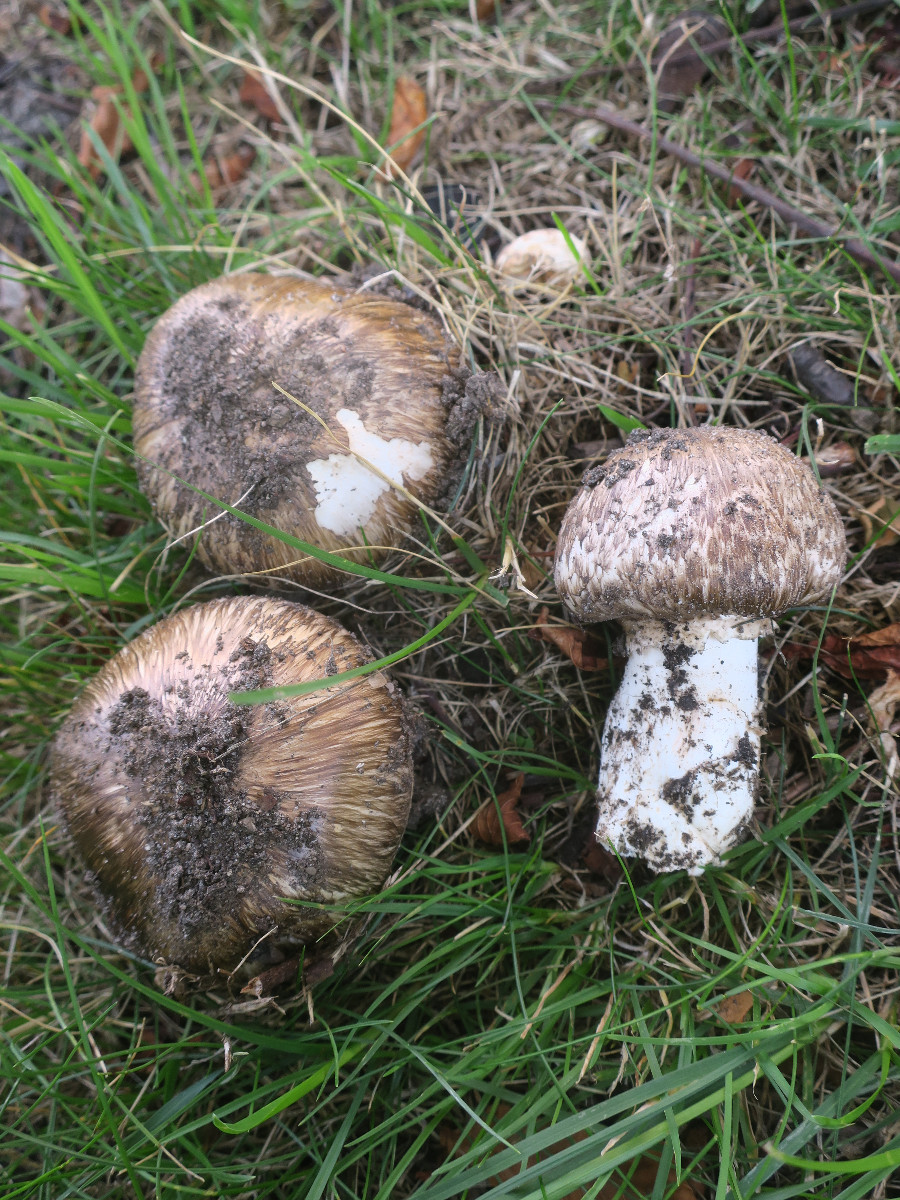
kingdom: Fungi
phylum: Basidiomycota
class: Agaricomycetes
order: Agaricales
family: Agaricaceae
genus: Agaricus
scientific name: Agaricus subperonatus
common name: knippe-champignon
